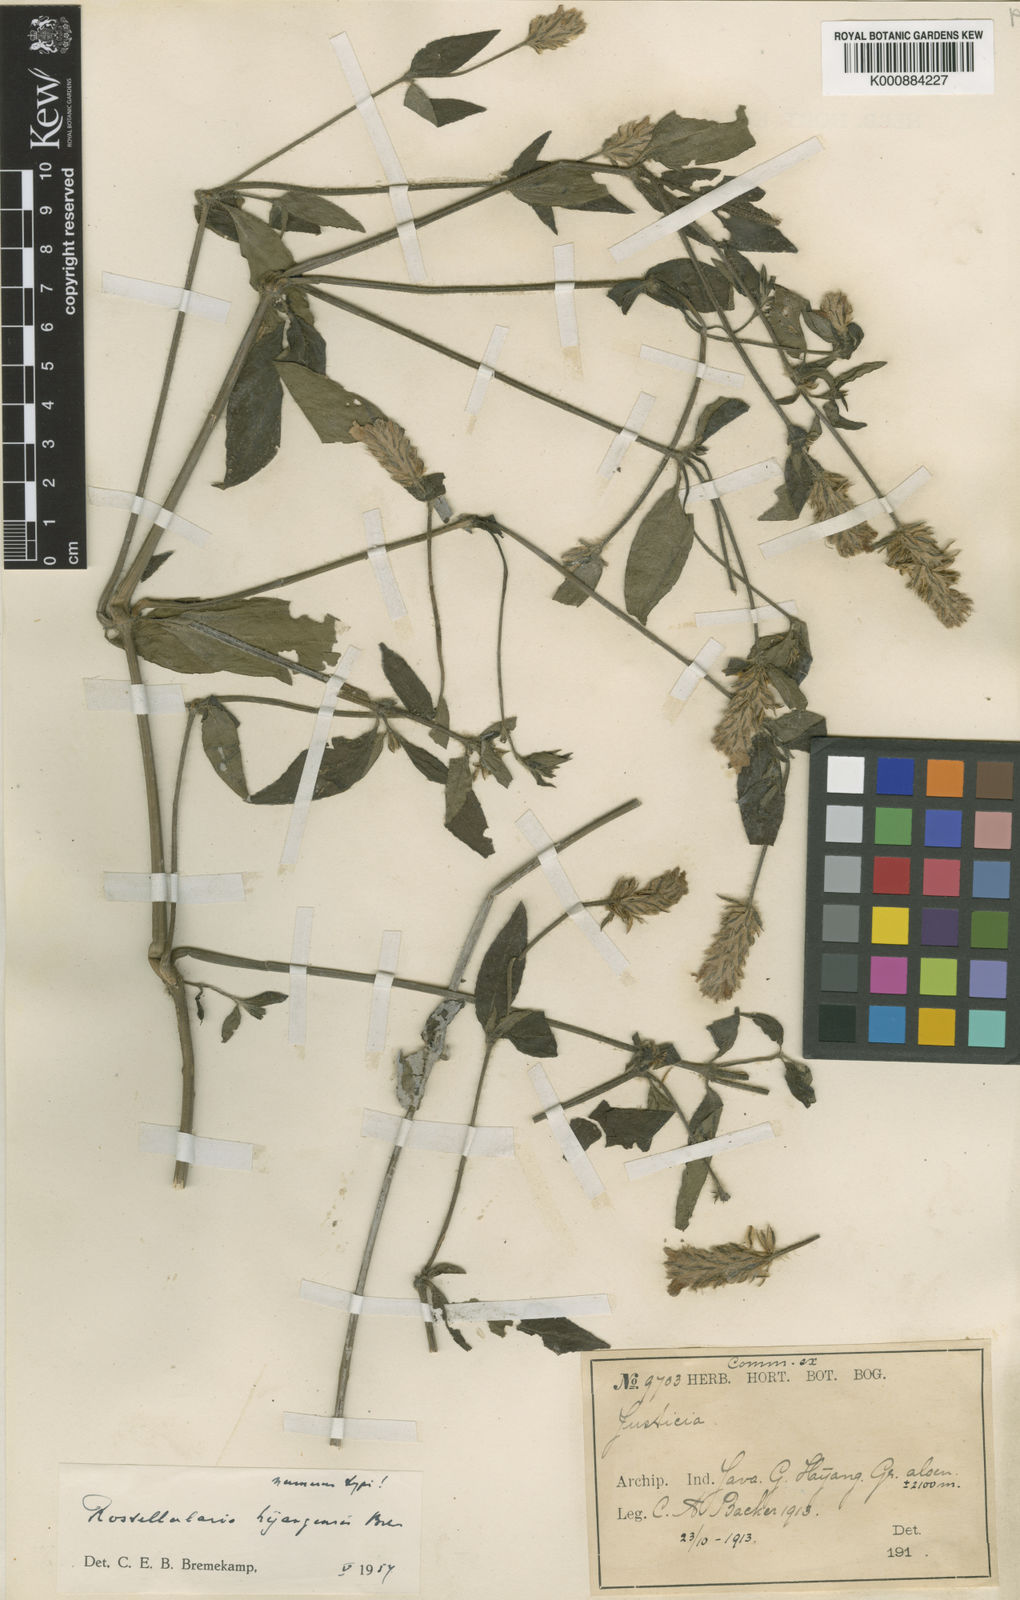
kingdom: Plantae
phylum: Tracheophyta
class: Magnoliopsida
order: Lamiales
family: Acanthaceae
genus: Justicia
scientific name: Justicia
